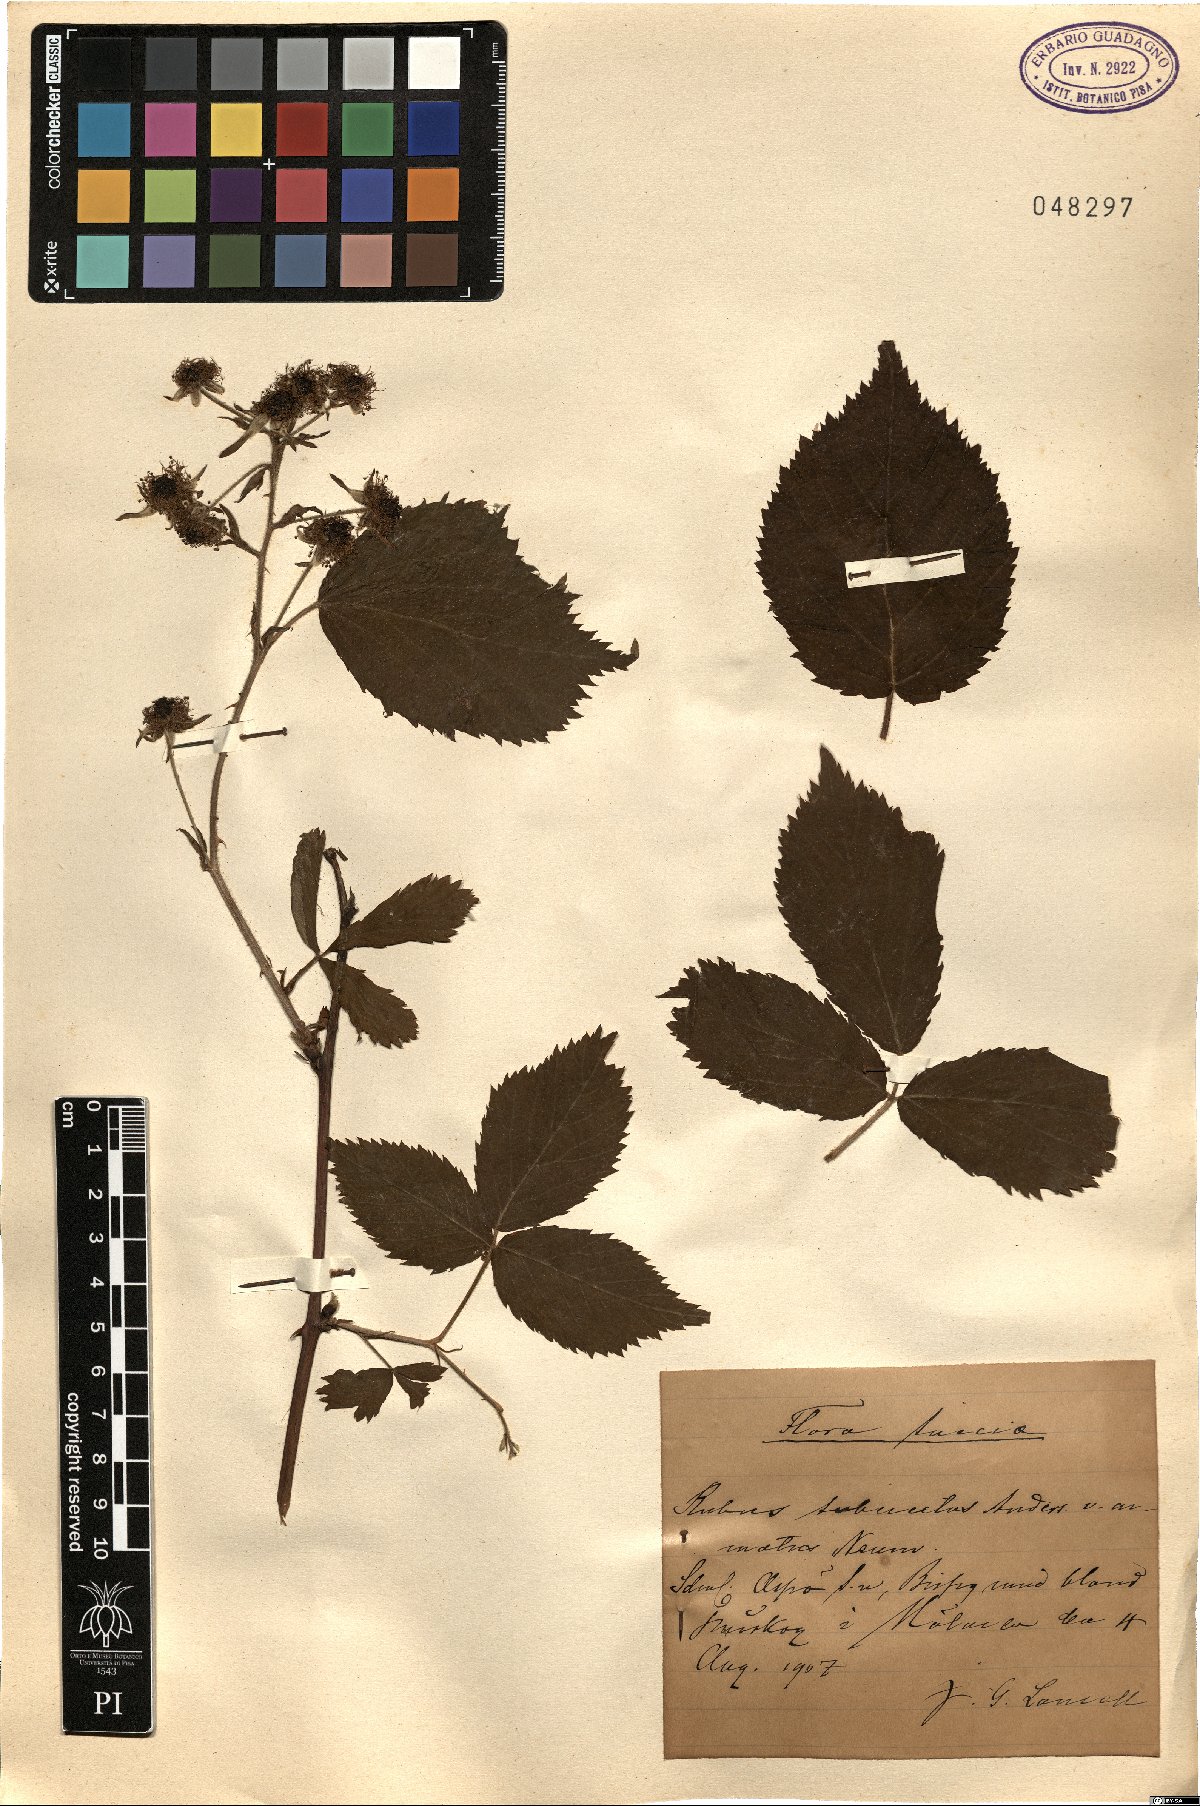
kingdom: Plantae
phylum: Tracheophyta
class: Magnoliopsida
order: Rosales
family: Rosaceae
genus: Rubus
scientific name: Rubus polonicus
